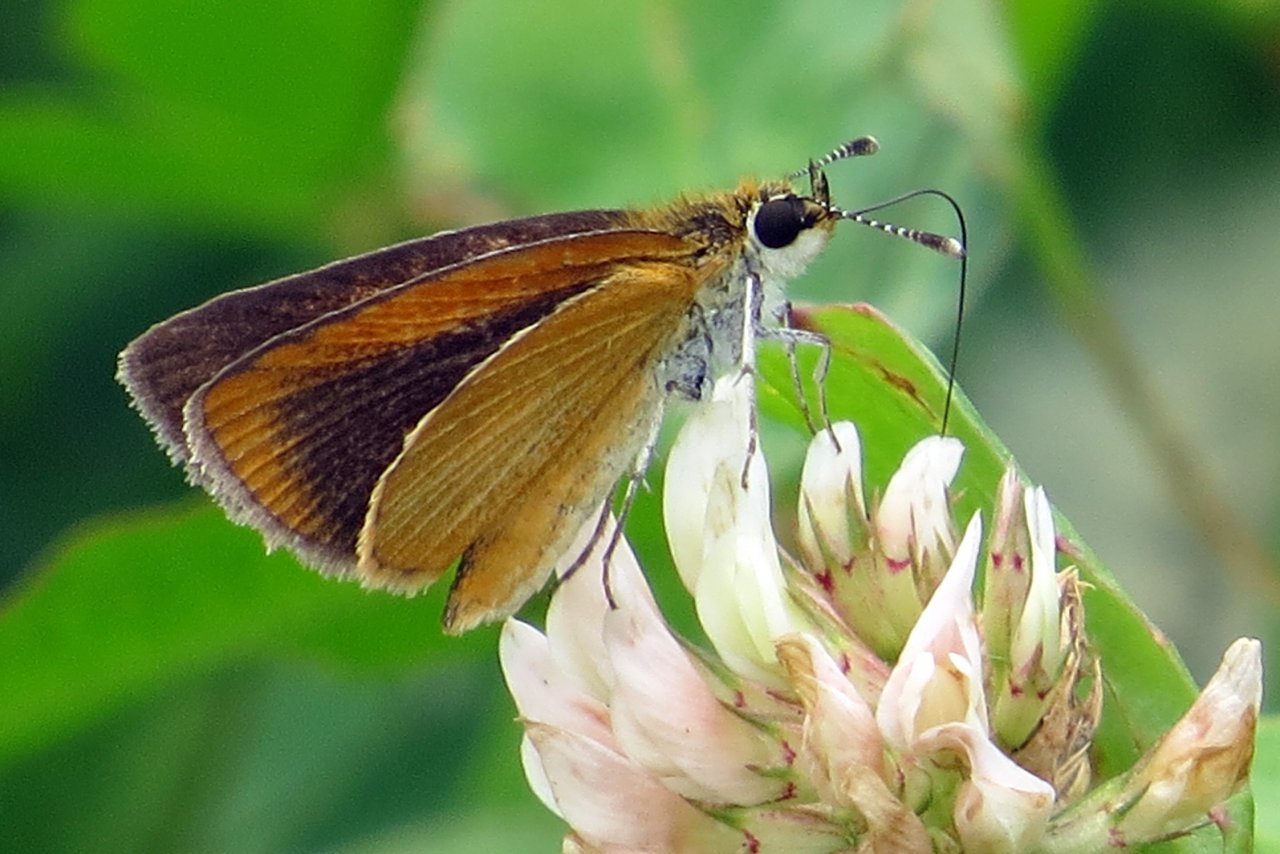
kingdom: Animalia
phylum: Arthropoda
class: Insecta
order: Lepidoptera
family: Hesperiidae
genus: Ancyloxypha
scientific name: Ancyloxypha numitor
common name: Least Skipper
